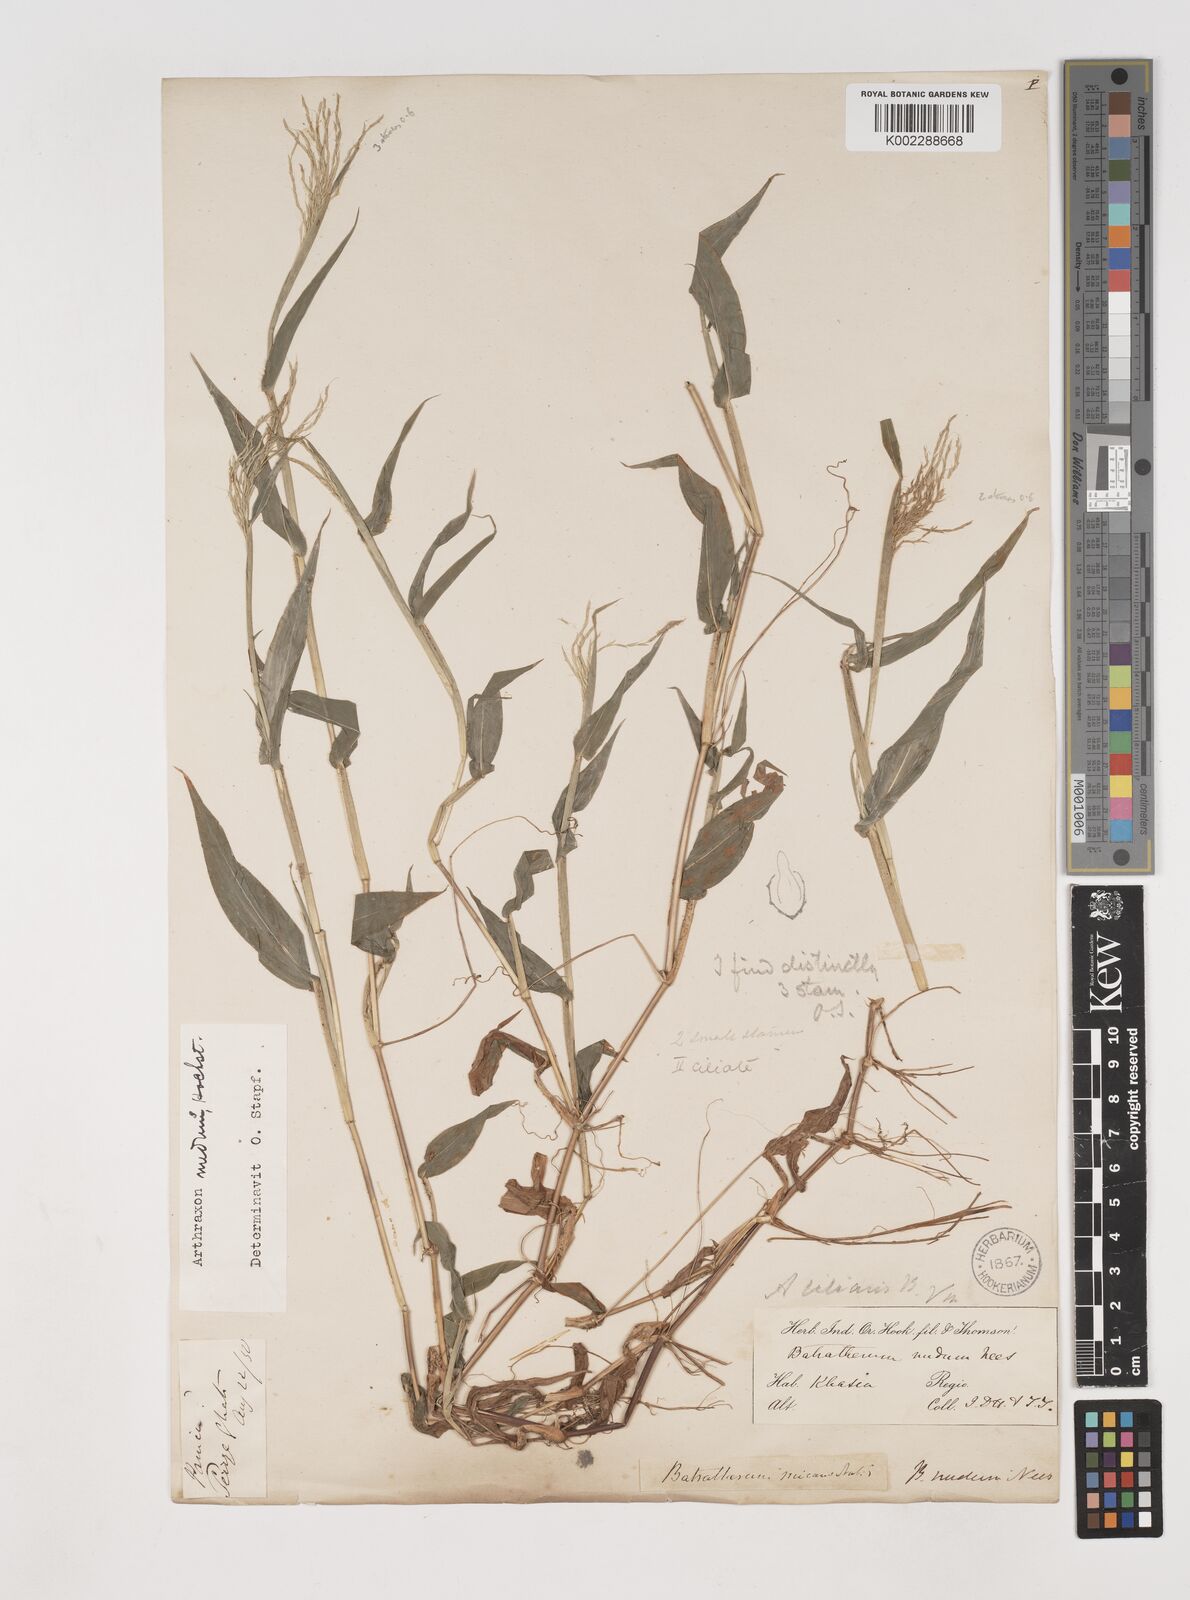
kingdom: Plantae
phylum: Tracheophyta
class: Liliopsida
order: Poales
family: Poaceae
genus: Arthraxon
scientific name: Arthraxon nudus
